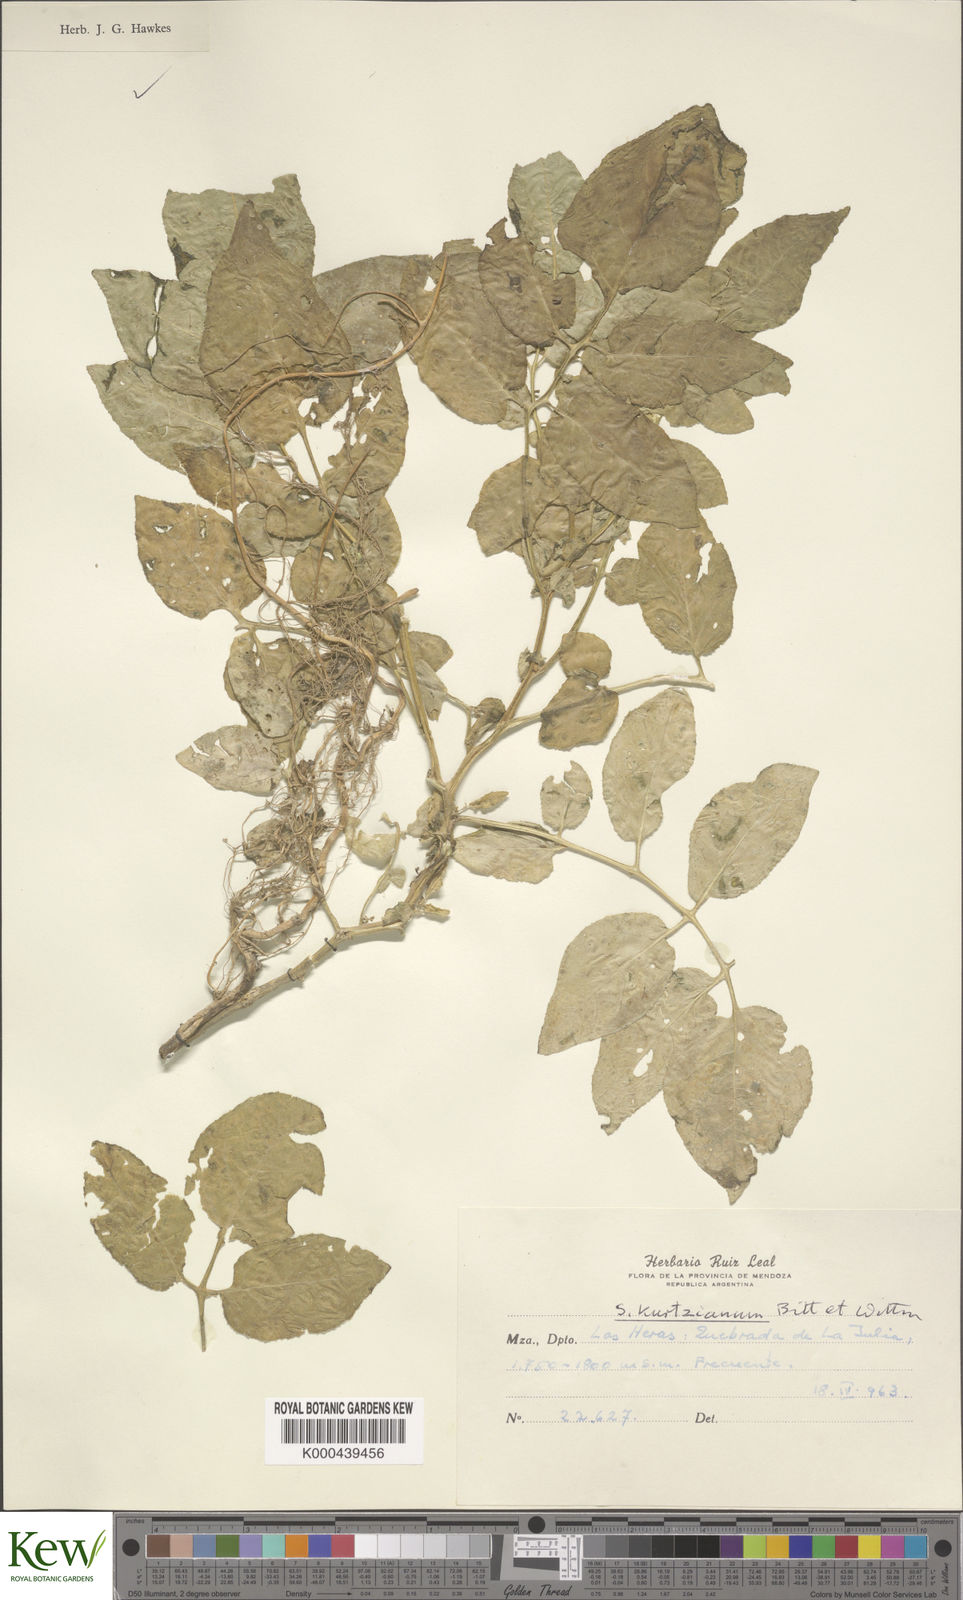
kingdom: Plantae
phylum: Tracheophyta
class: Magnoliopsida
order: Solanales
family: Solanaceae
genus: Solanum
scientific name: Solanum kurtzianum
